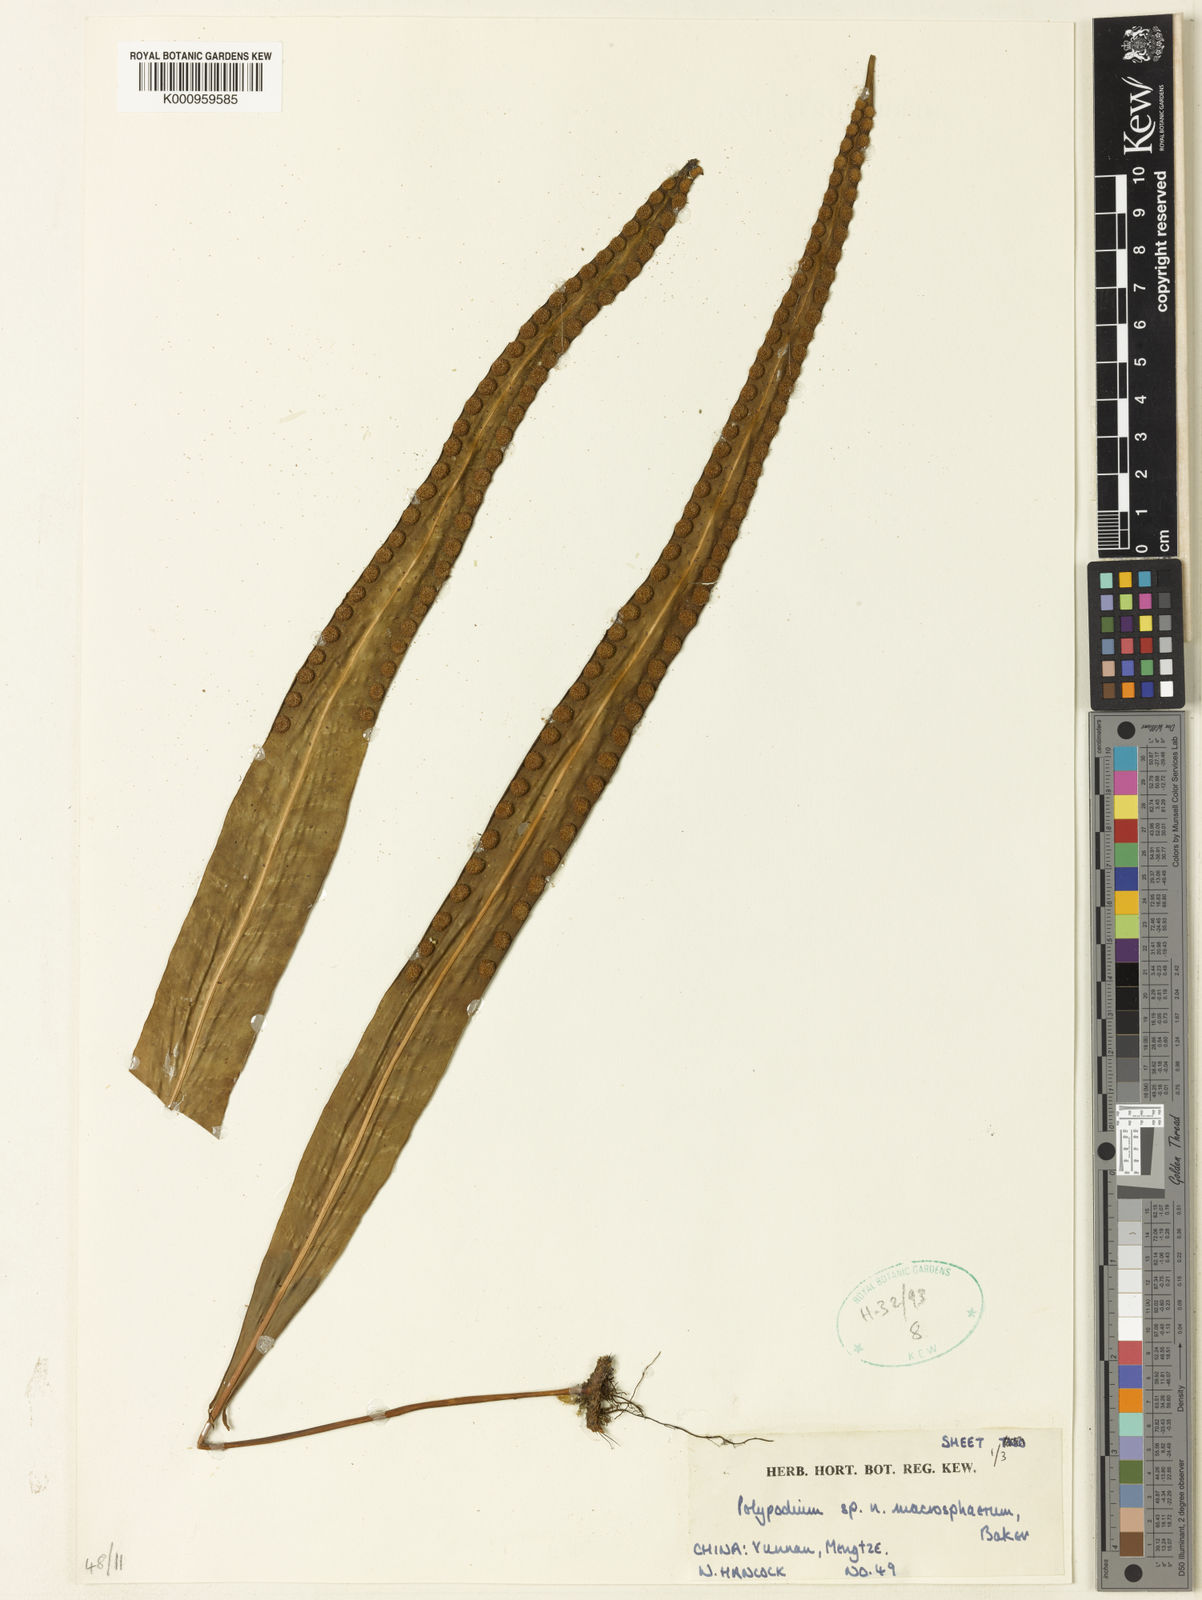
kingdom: Plantae
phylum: Tracheophyta
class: Polypodiopsida
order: Polypodiales
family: Polypodiaceae
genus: Lepisorus
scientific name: Lepisorus macrosphaerus
